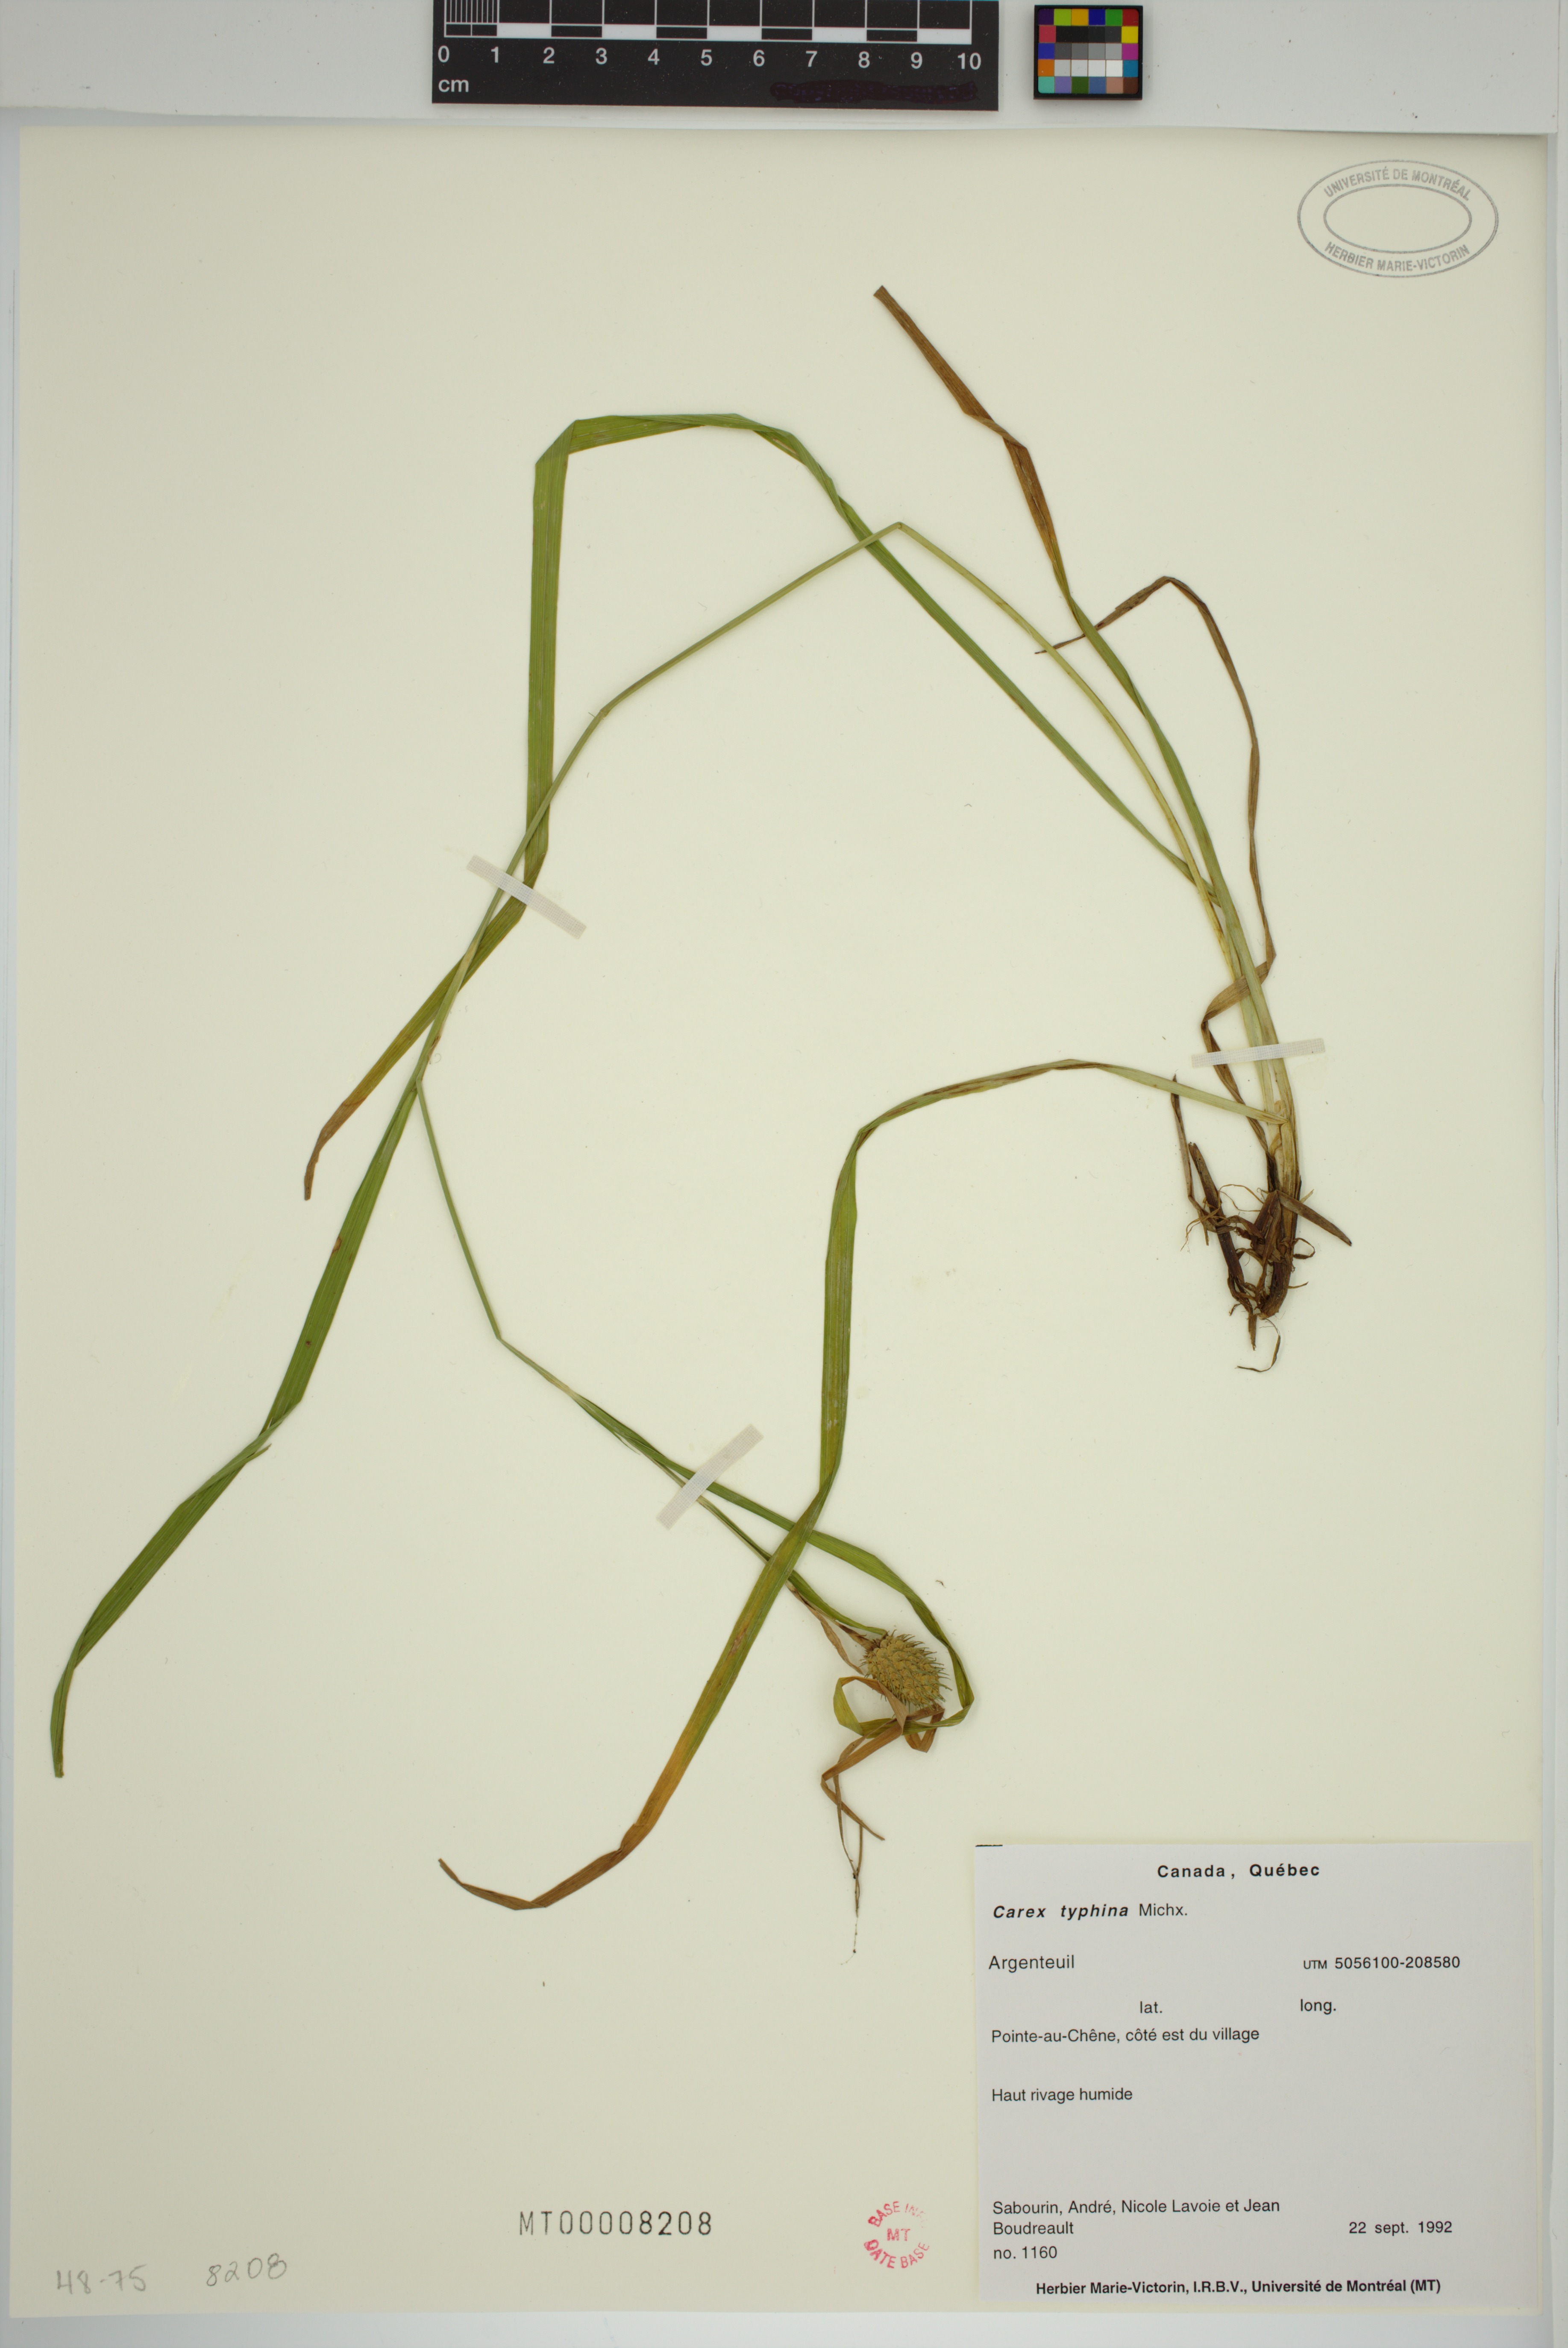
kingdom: Plantae
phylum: Tracheophyta
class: Liliopsida
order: Poales
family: Cyperaceae
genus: Carex
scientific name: Carex typhina
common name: Cattail sedge
